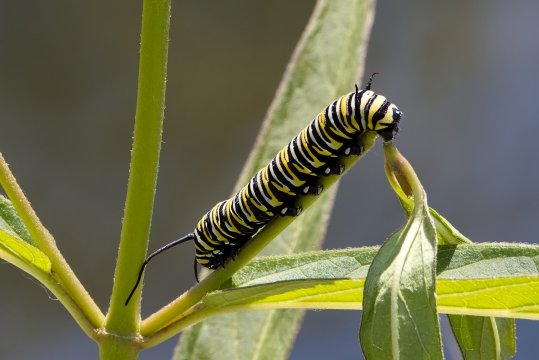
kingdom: Animalia
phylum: Arthropoda
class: Insecta
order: Lepidoptera
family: Nymphalidae
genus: Danaus
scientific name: Danaus plexippus
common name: Monarch
